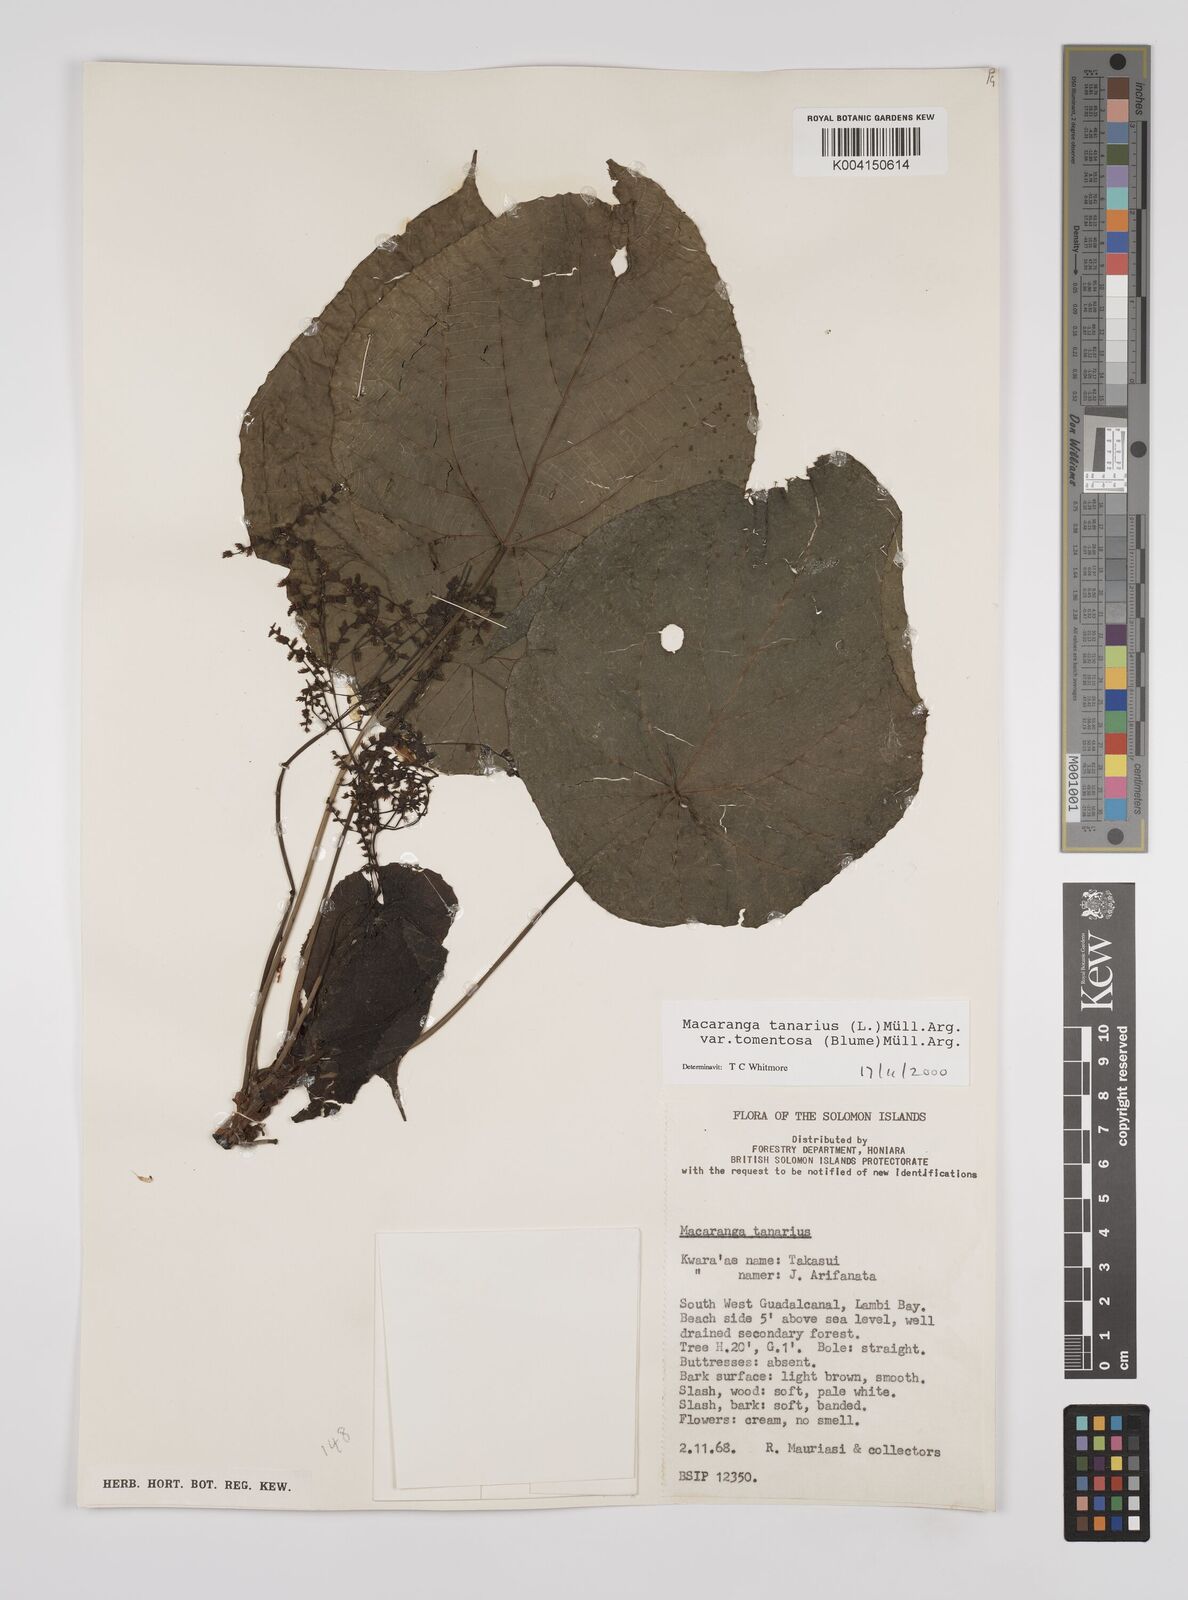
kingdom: Plantae
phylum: Tracheophyta
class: Magnoliopsida
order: Malpighiales
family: Euphorbiaceae
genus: Macaranga
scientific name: Macaranga tanarius
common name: Parasol leaf tree
